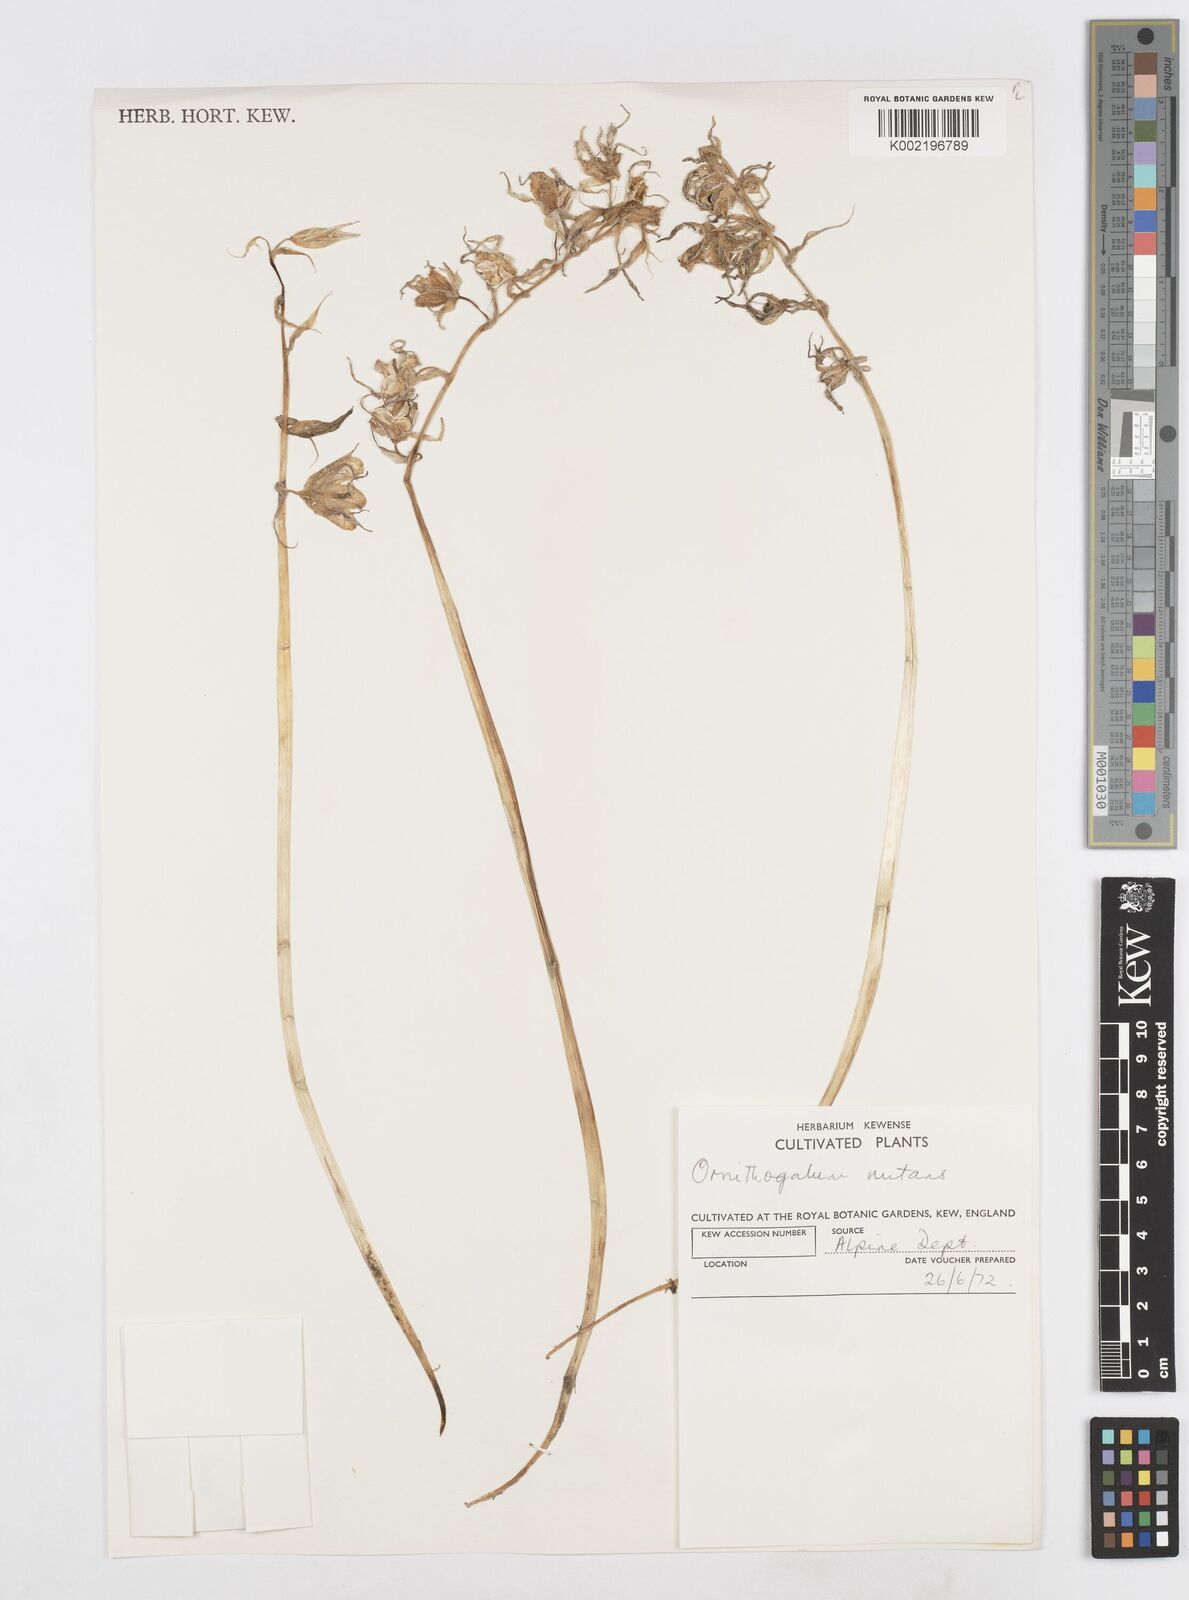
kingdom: Plantae
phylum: Tracheophyta
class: Liliopsida
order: Asparagales
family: Asparagaceae
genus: Ornithogalum
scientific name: Ornithogalum nutans
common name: Drooping star-of-bethlehem
